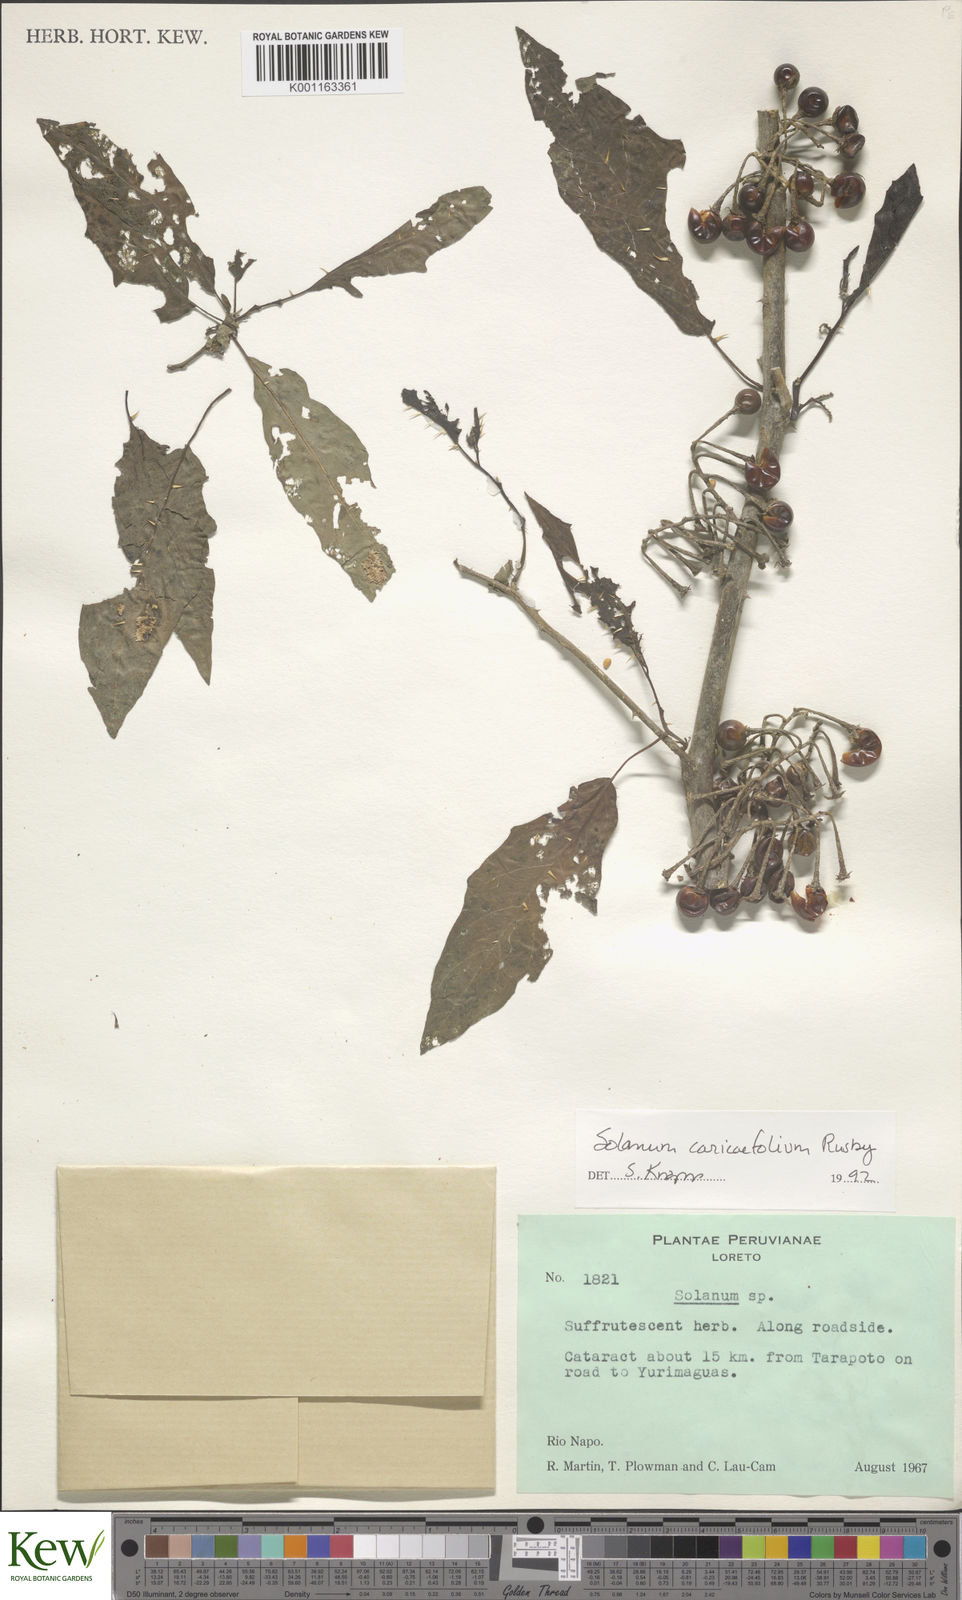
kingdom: Plantae
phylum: Tracheophyta
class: Magnoliopsida
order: Solanales
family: Solanaceae
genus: Solanum
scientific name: Solanum caricaefolium
